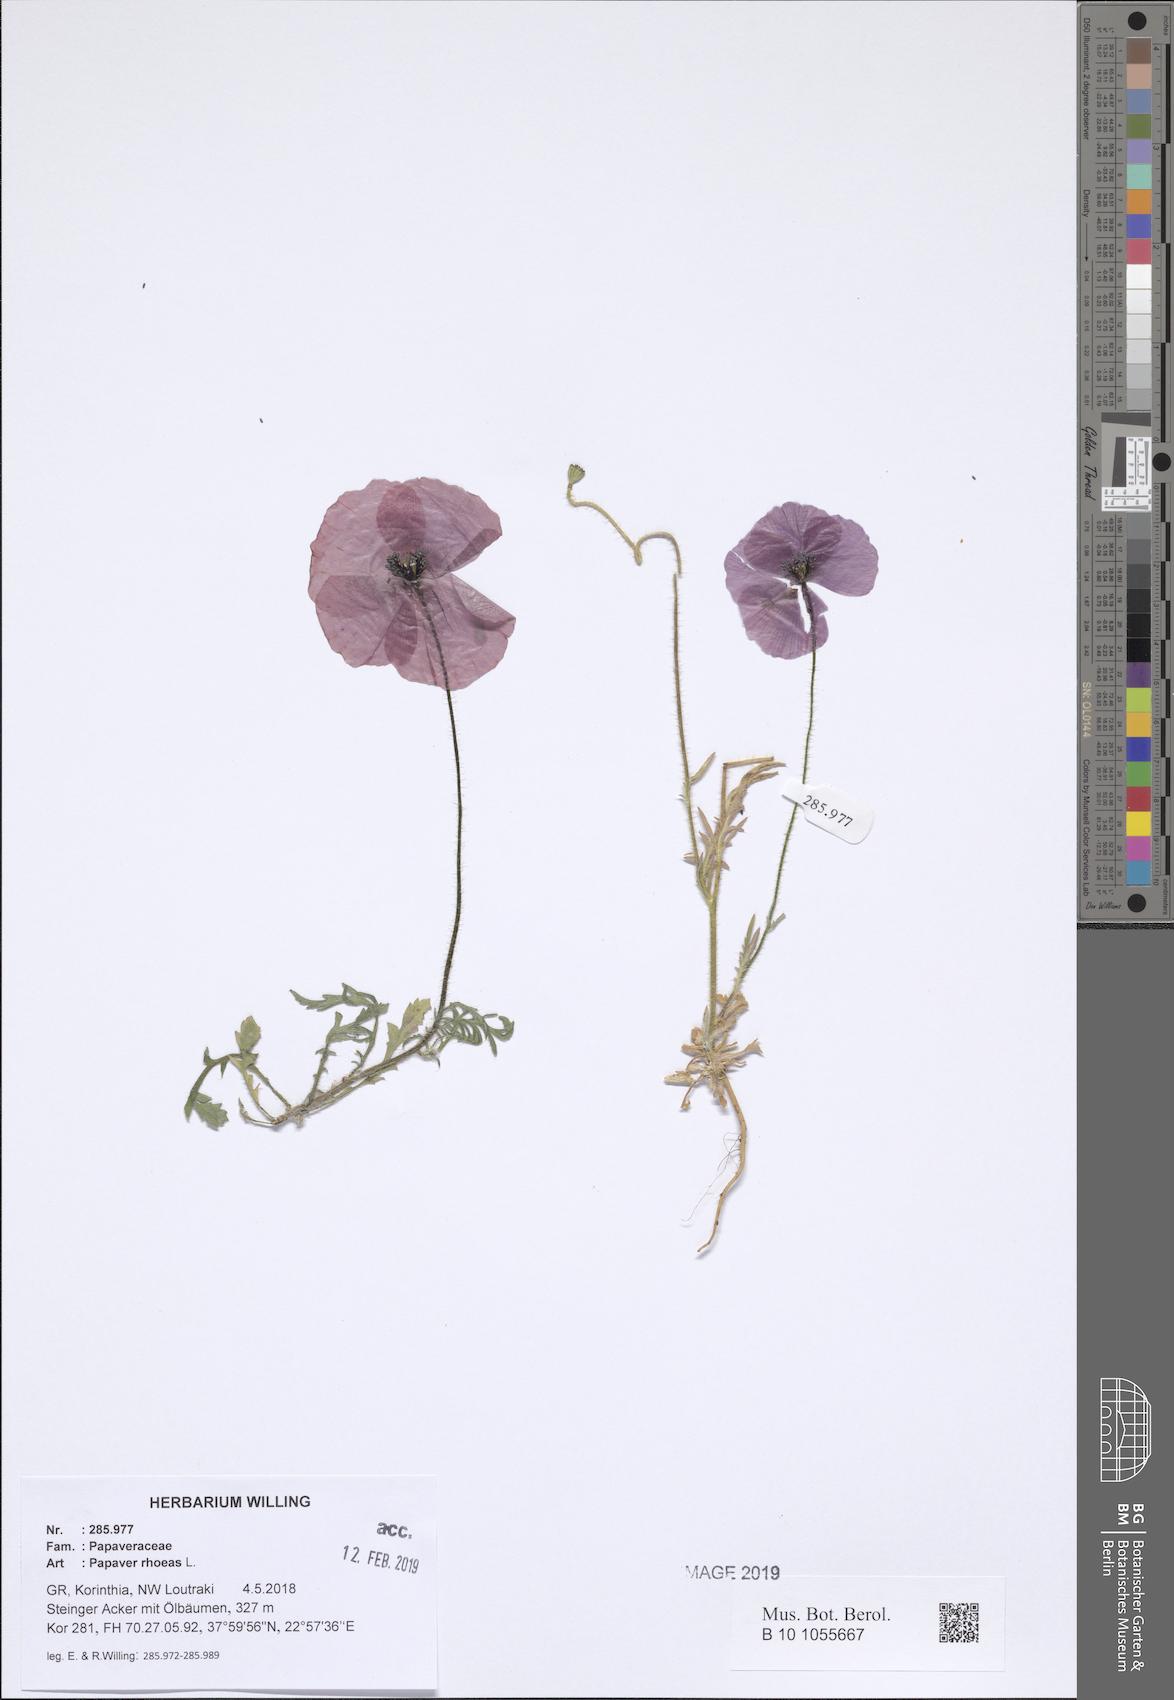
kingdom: Plantae
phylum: Tracheophyta
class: Magnoliopsida
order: Ranunculales
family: Papaveraceae
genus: Papaver
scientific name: Papaver rhoeas
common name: Corn poppy
